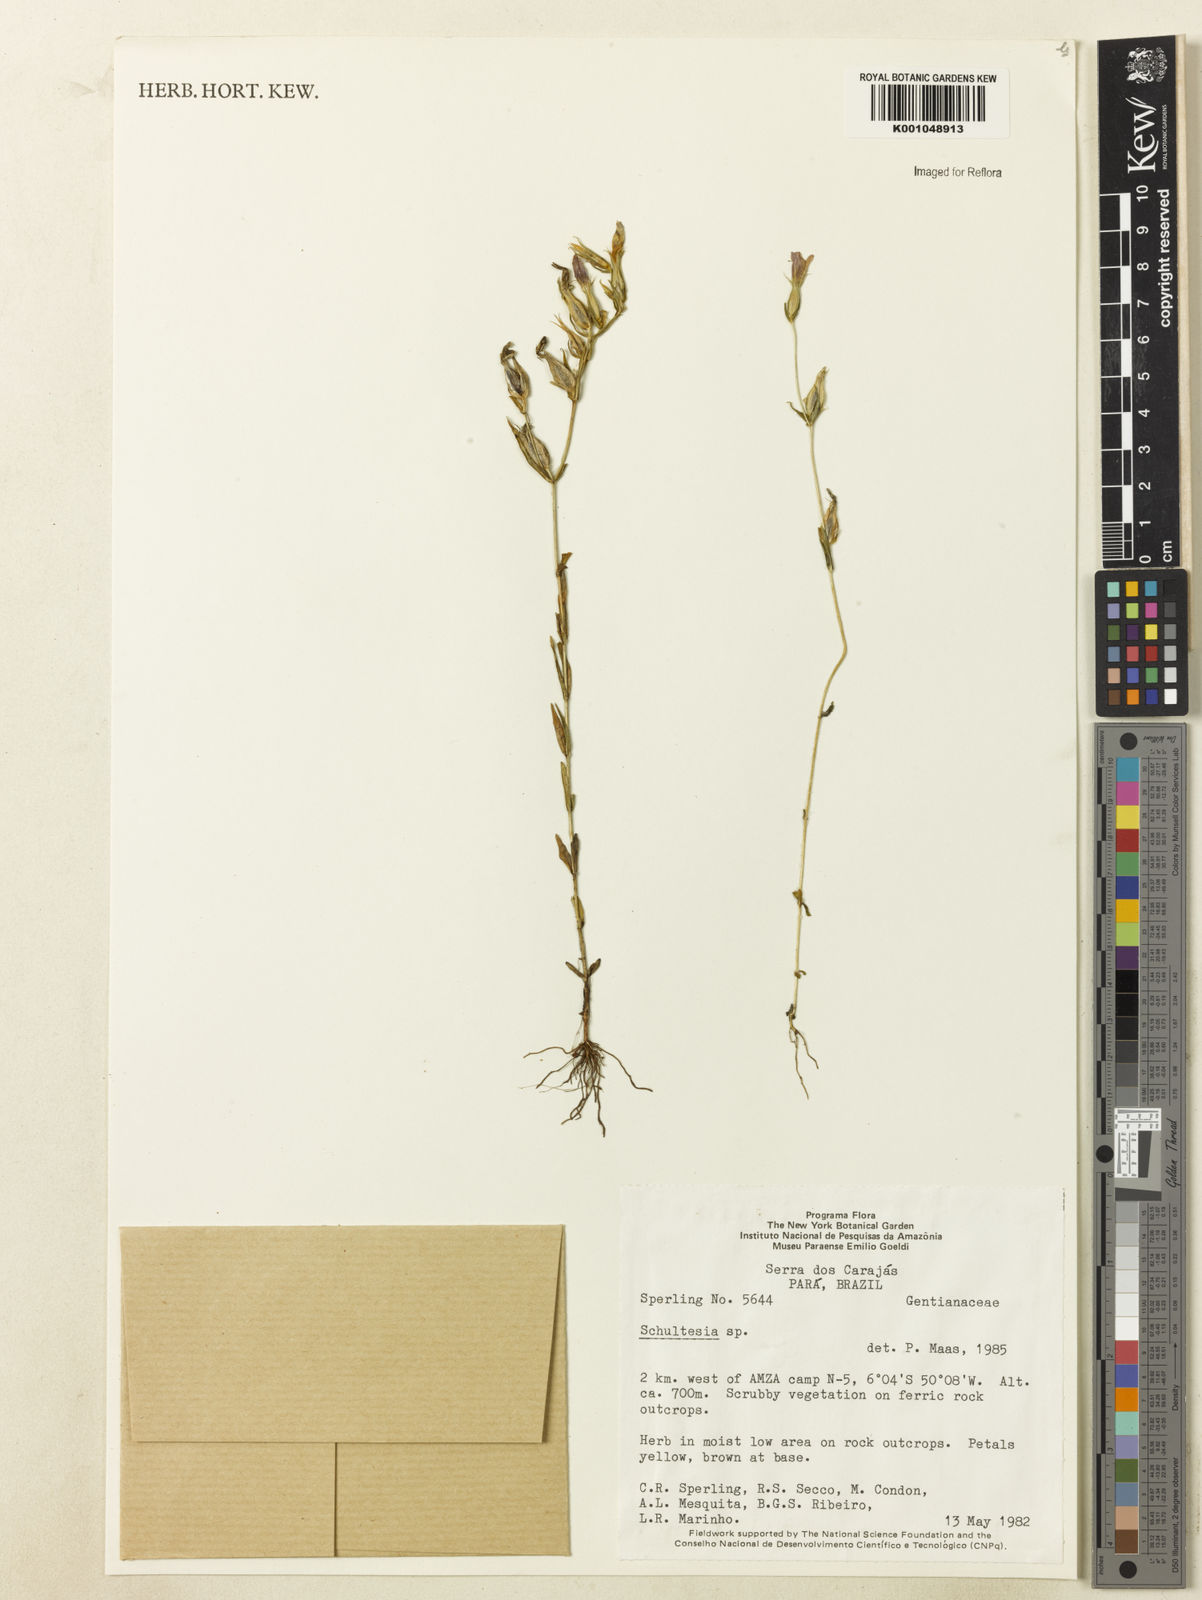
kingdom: Plantae
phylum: Tracheophyta
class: Magnoliopsida
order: Gentianales
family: Gentianaceae
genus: Schultesia
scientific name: Schultesia
